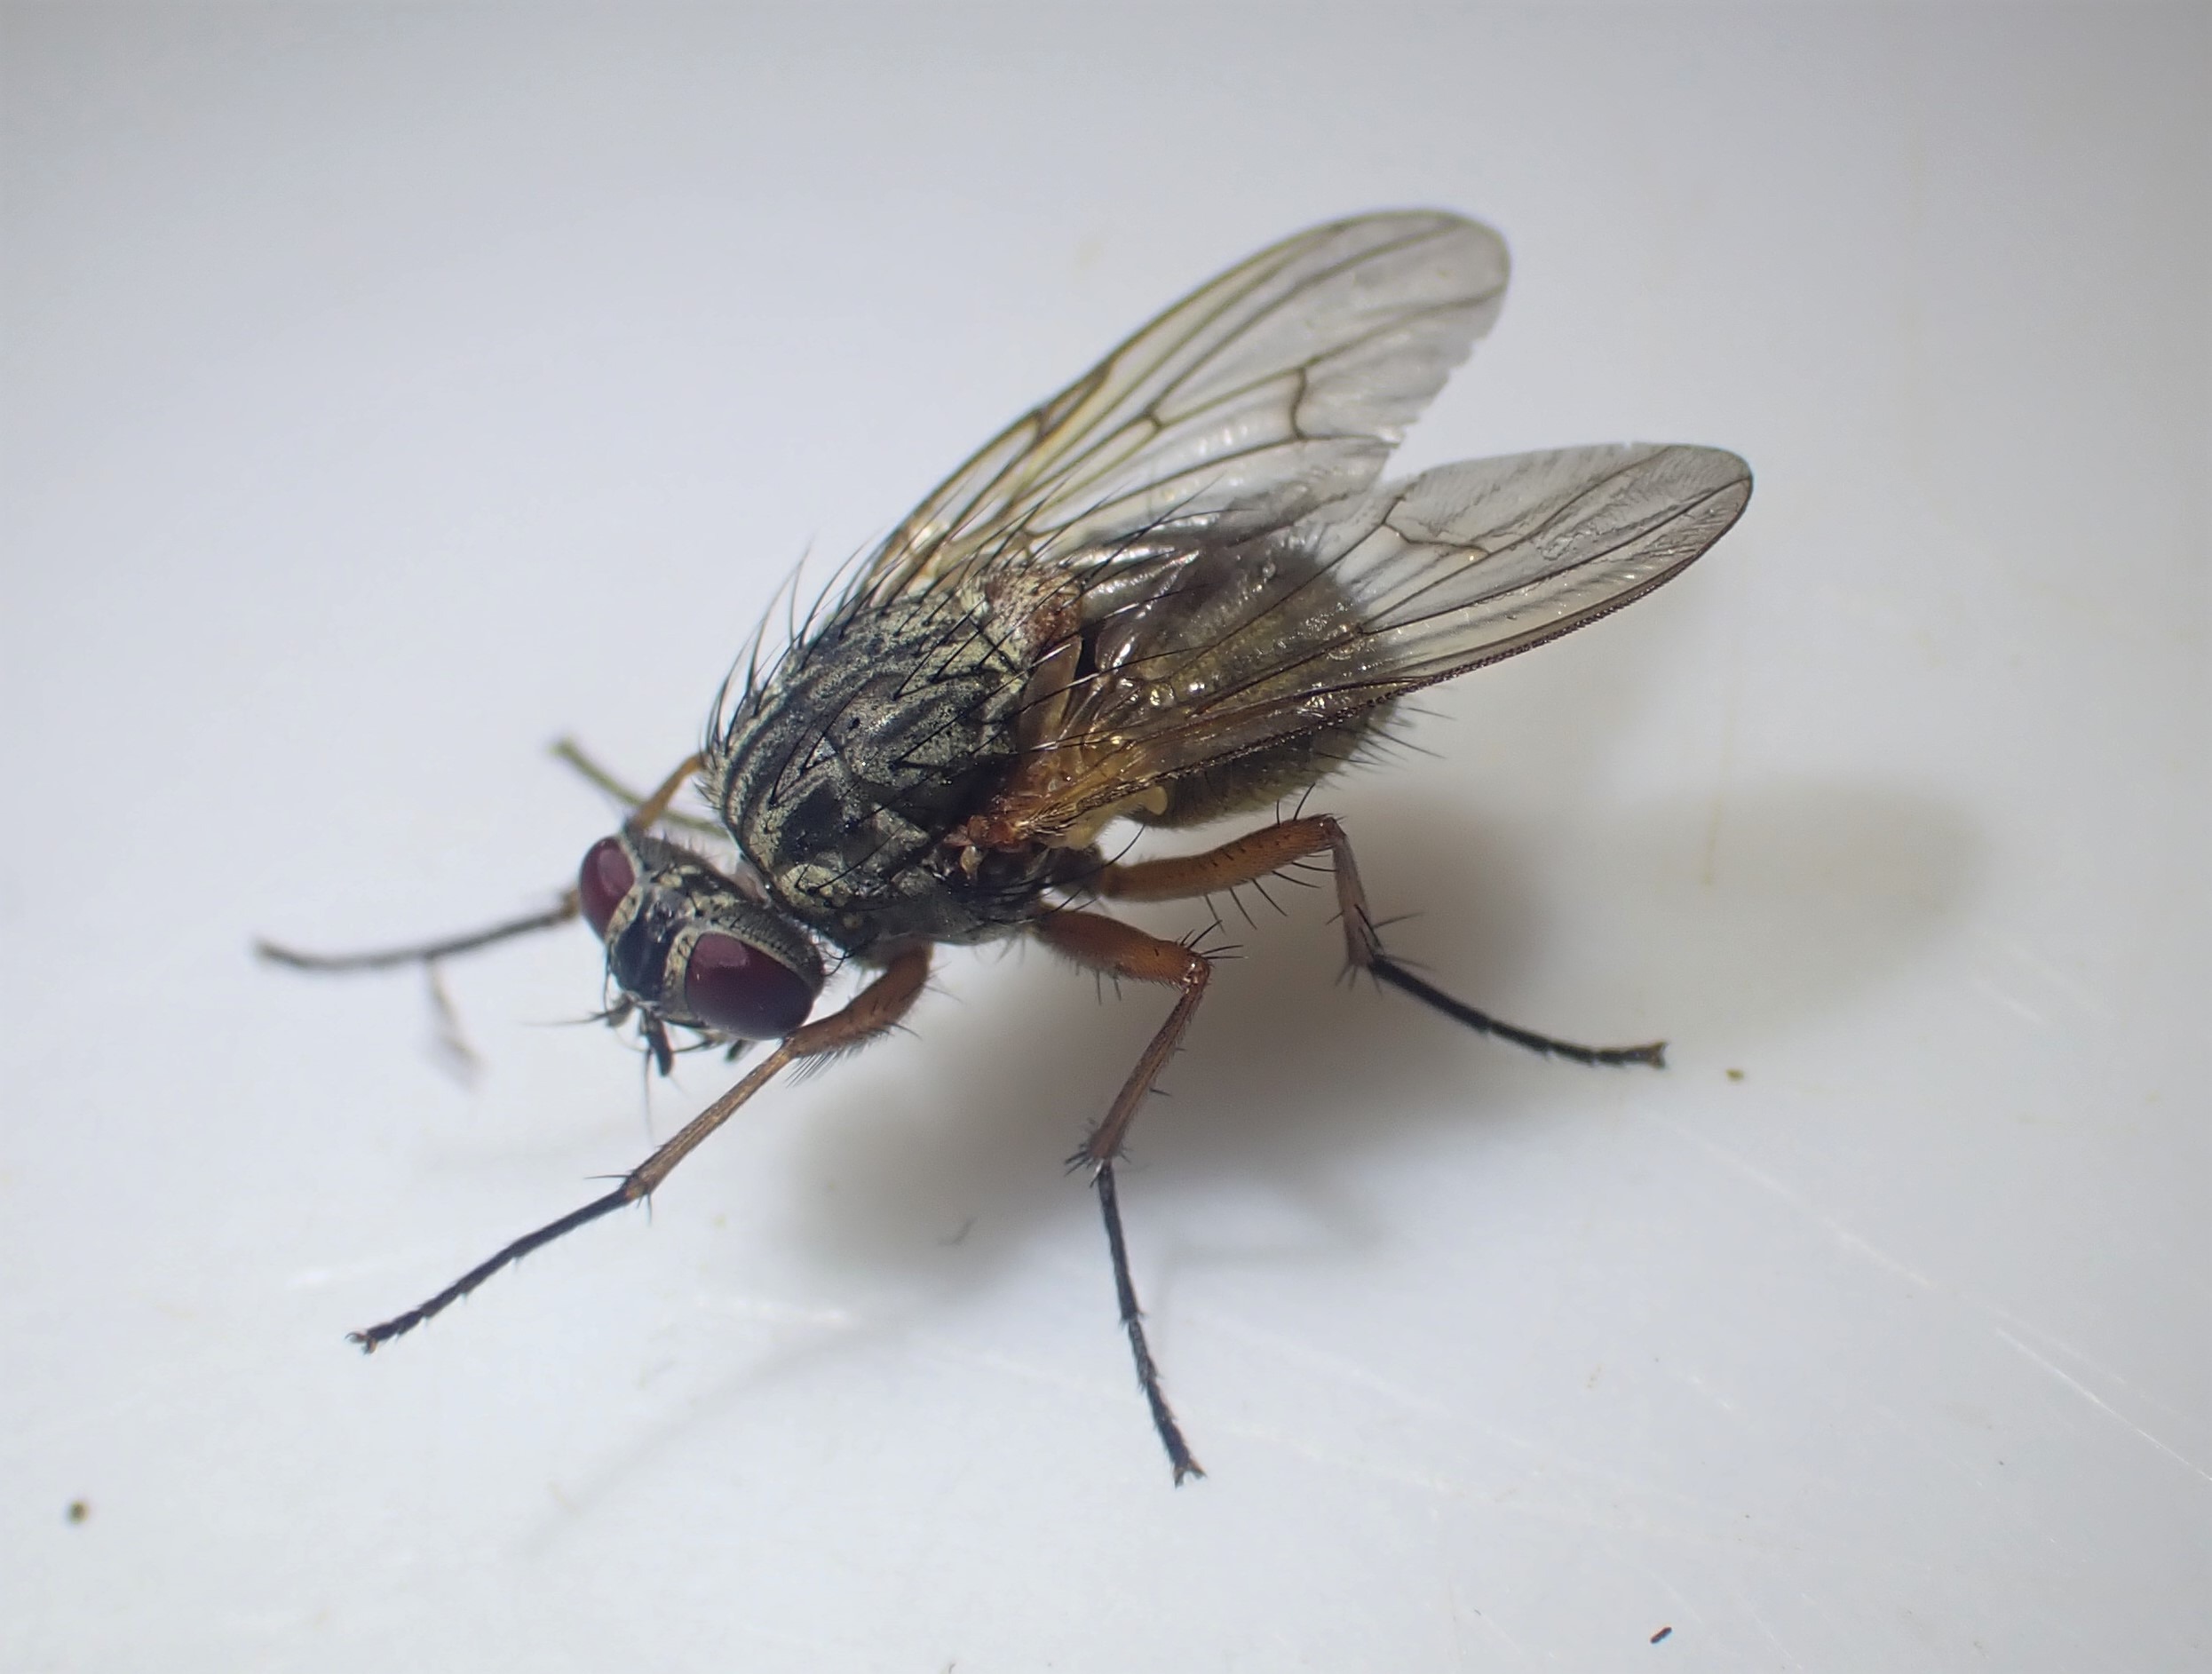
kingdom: Animalia
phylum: Arthropoda
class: Insecta
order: Diptera
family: Muscidae
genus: Phaonia
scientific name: Phaonia errans
